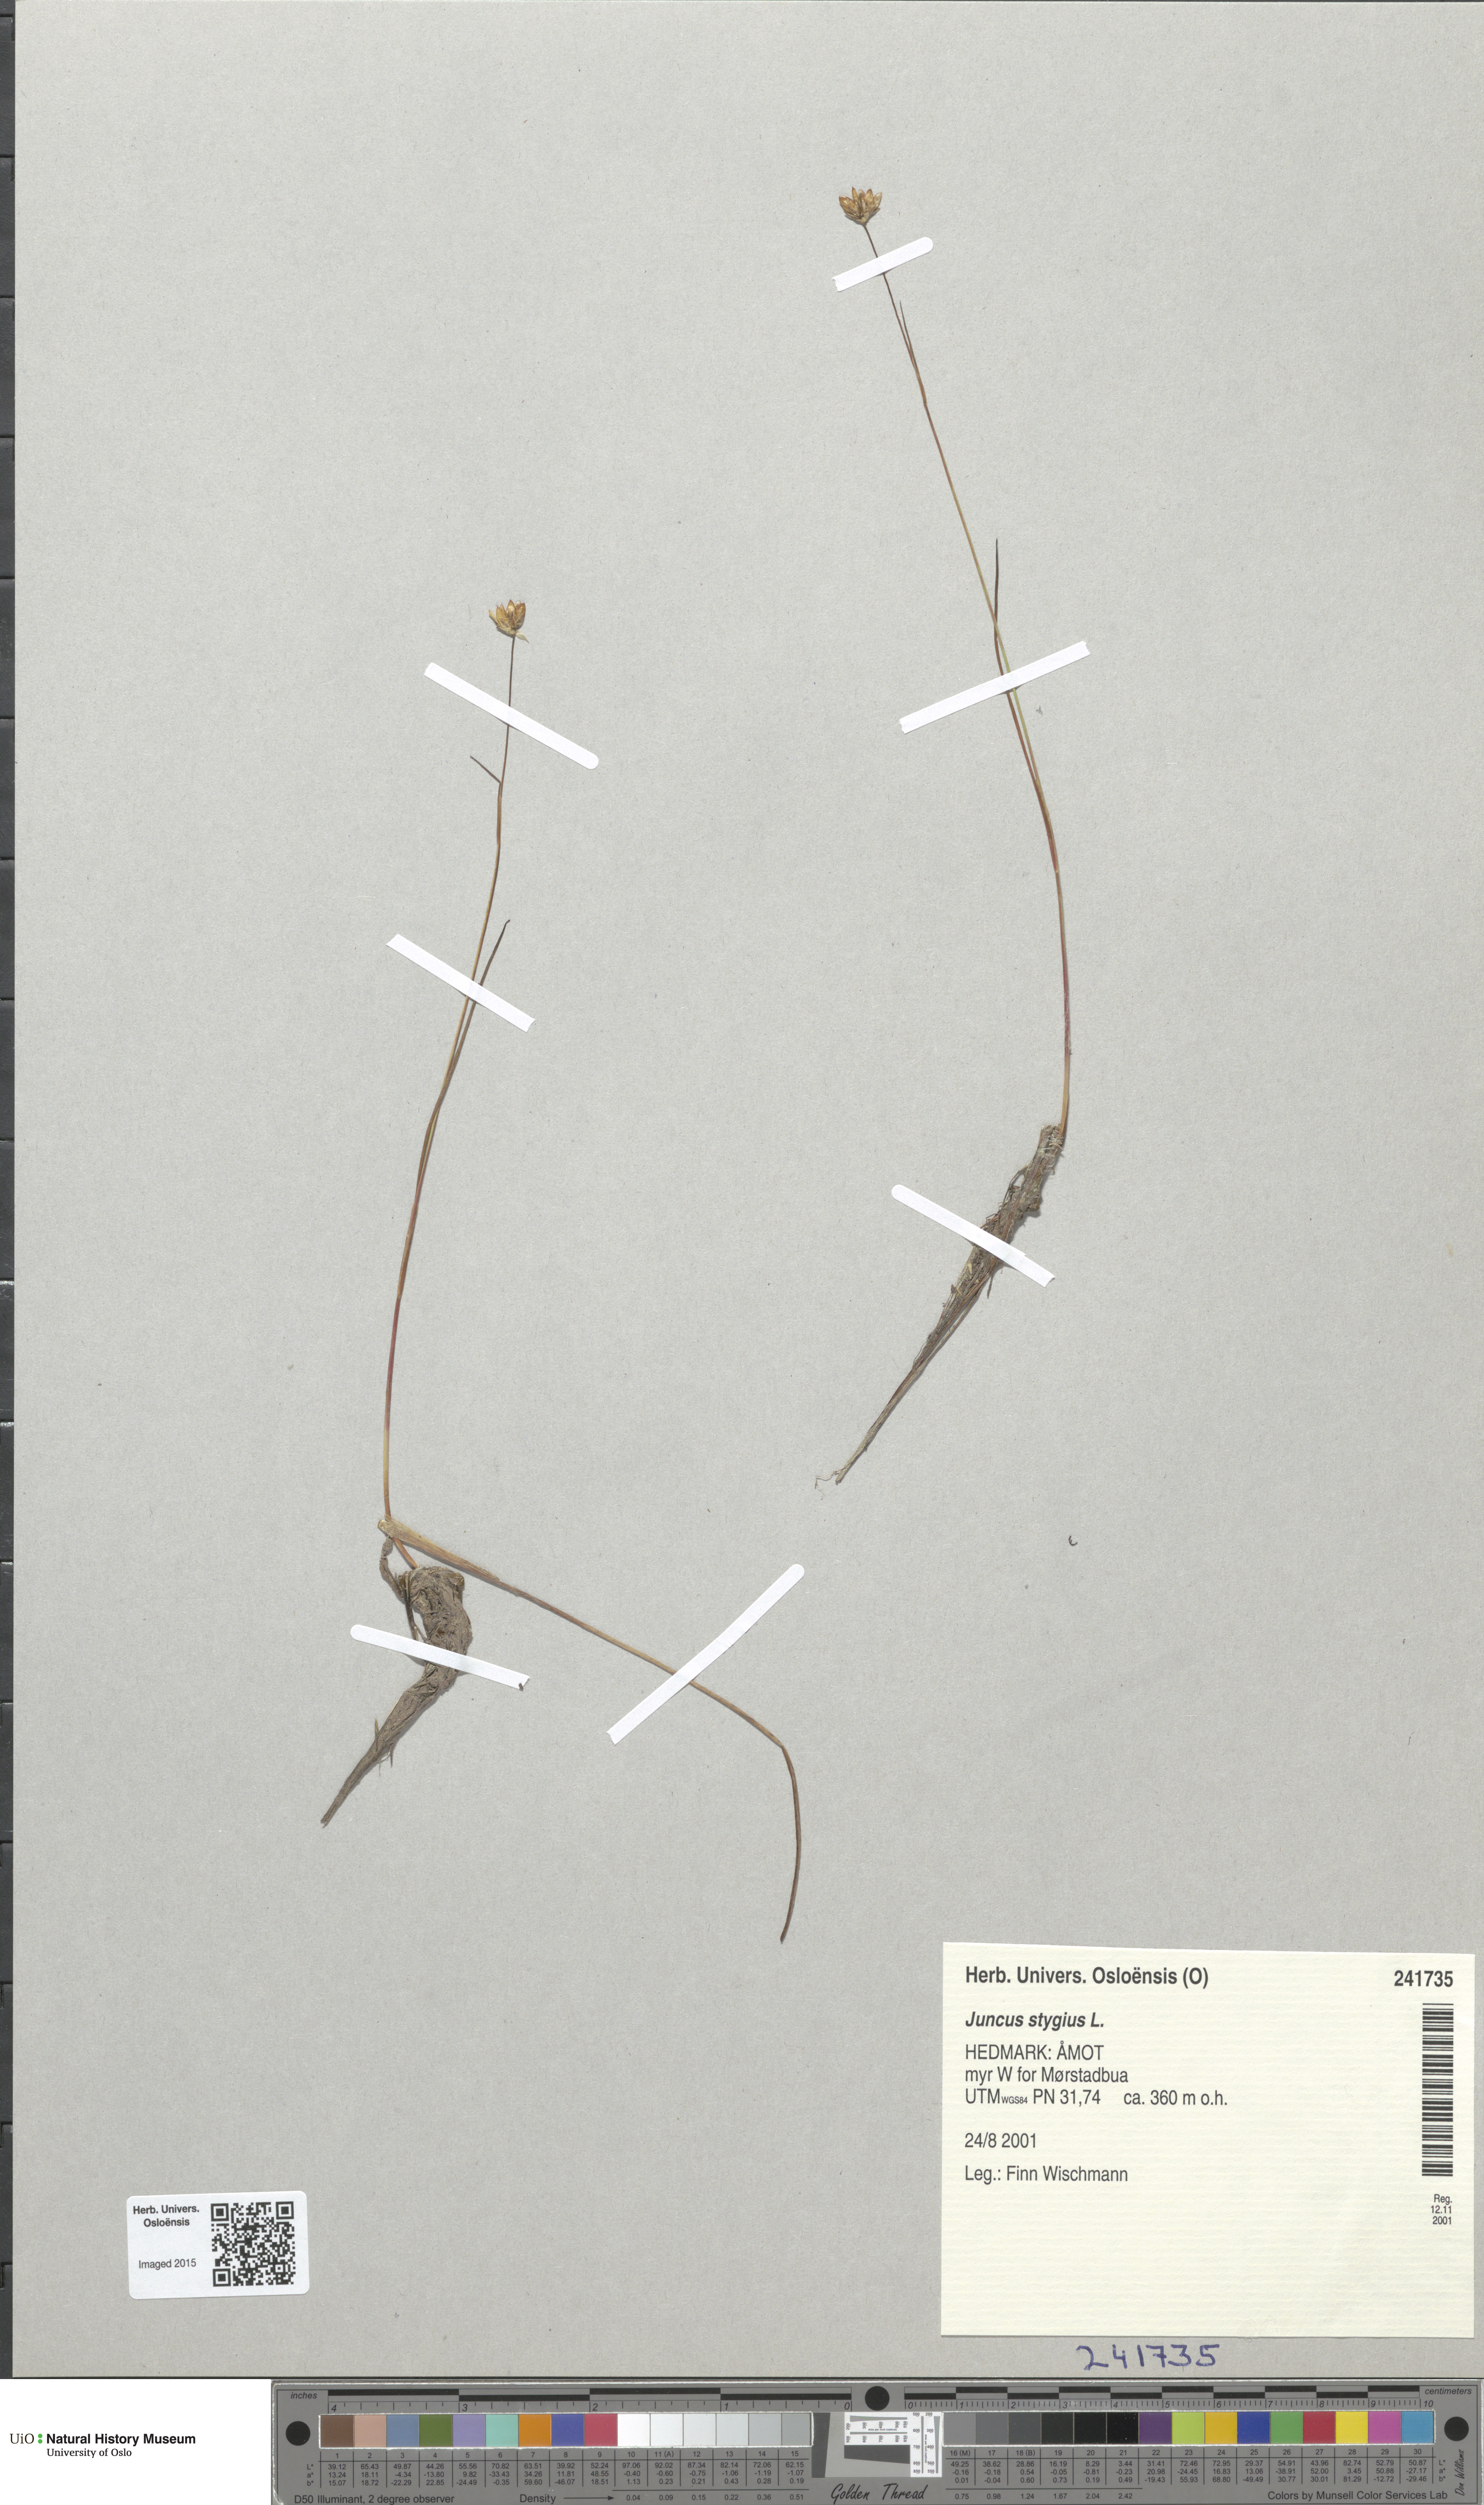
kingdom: Plantae
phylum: Tracheophyta
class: Liliopsida
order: Poales
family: Juncaceae
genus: Juncus
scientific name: Juncus stygius
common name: Bog rush
